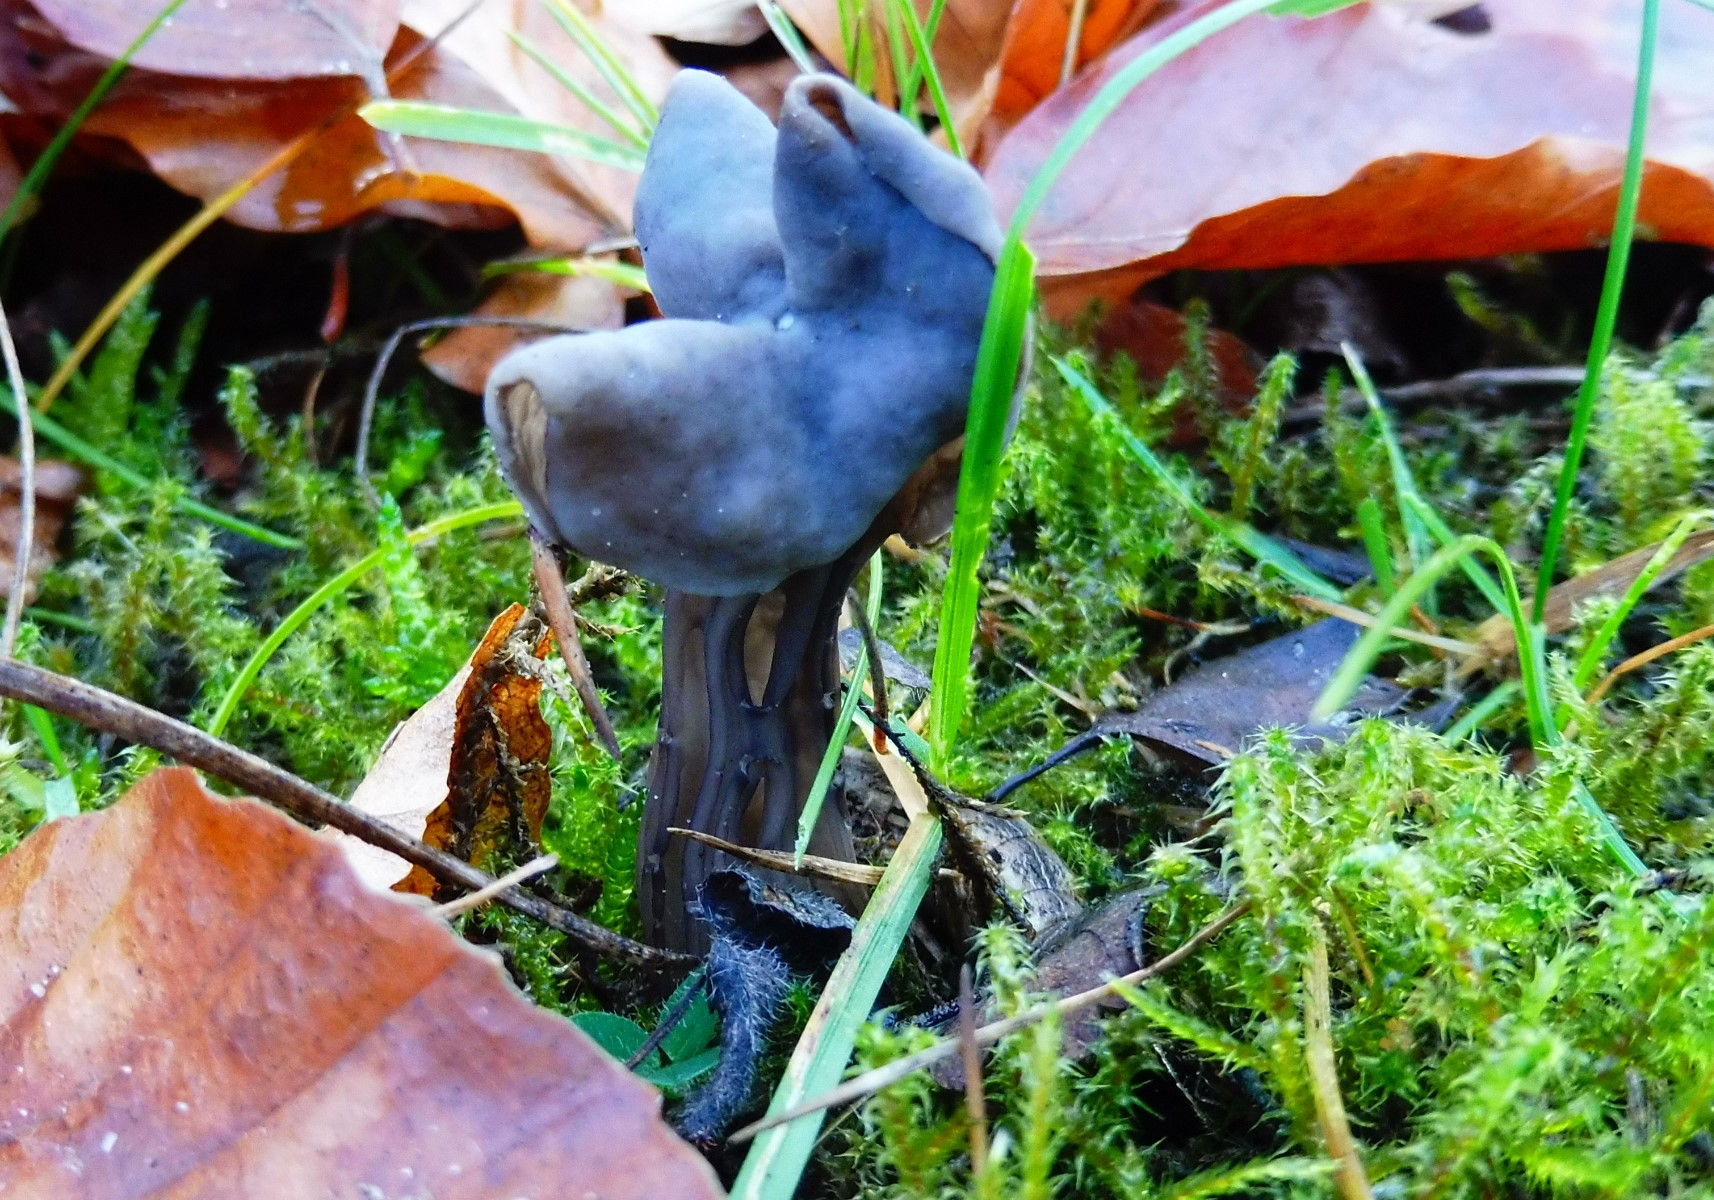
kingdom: Fungi
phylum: Ascomycota
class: Pezizomycetes
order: Pezizales
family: Helvellaceae
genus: Helvella
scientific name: Helvella lacunosa
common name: grubet foldhat
